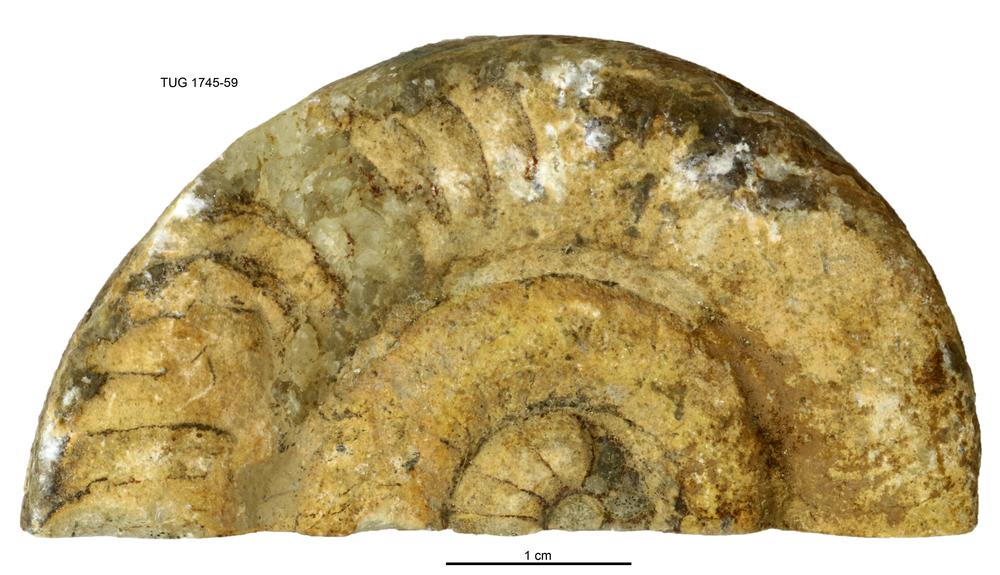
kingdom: Animalia
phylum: Mollusca
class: Cephalopoda
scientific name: Cephalopoda
